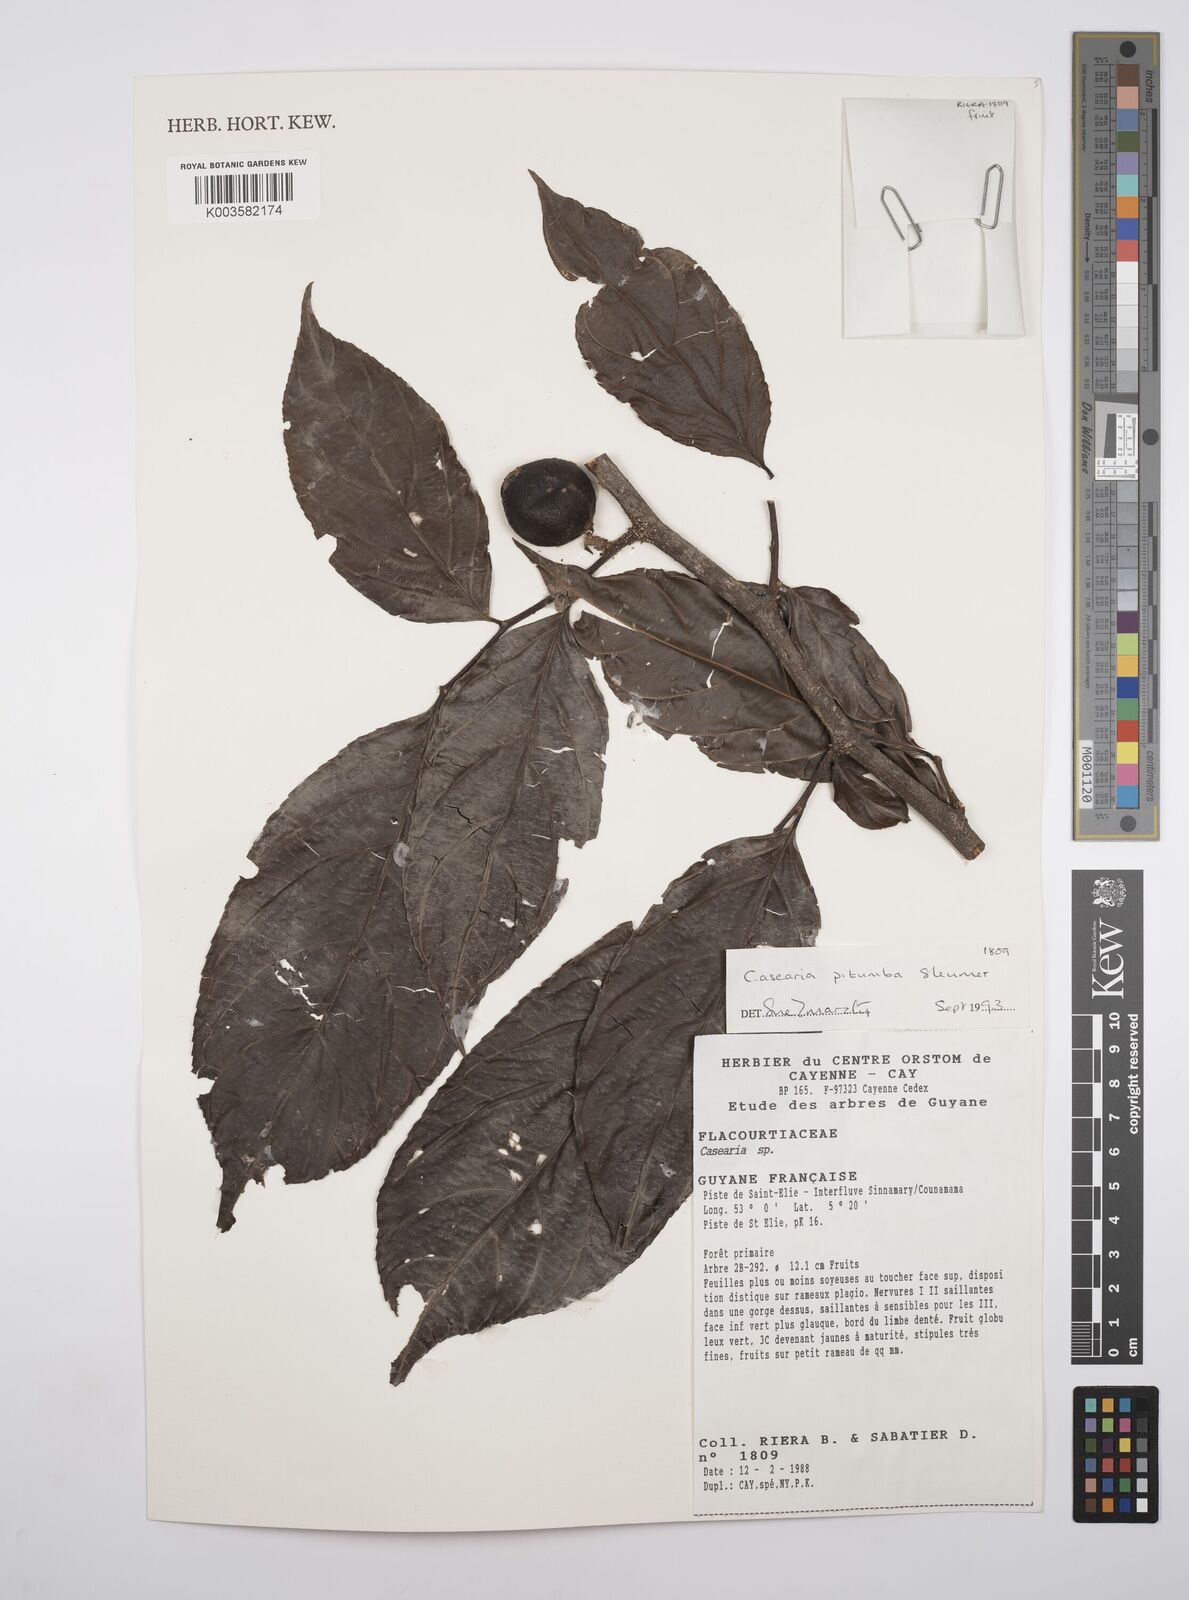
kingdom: Plantae
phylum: Tracheophyta
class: Magnoliopsida
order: Malpighiales
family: Salicaceae
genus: Casearia
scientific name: Casearia pitumba
